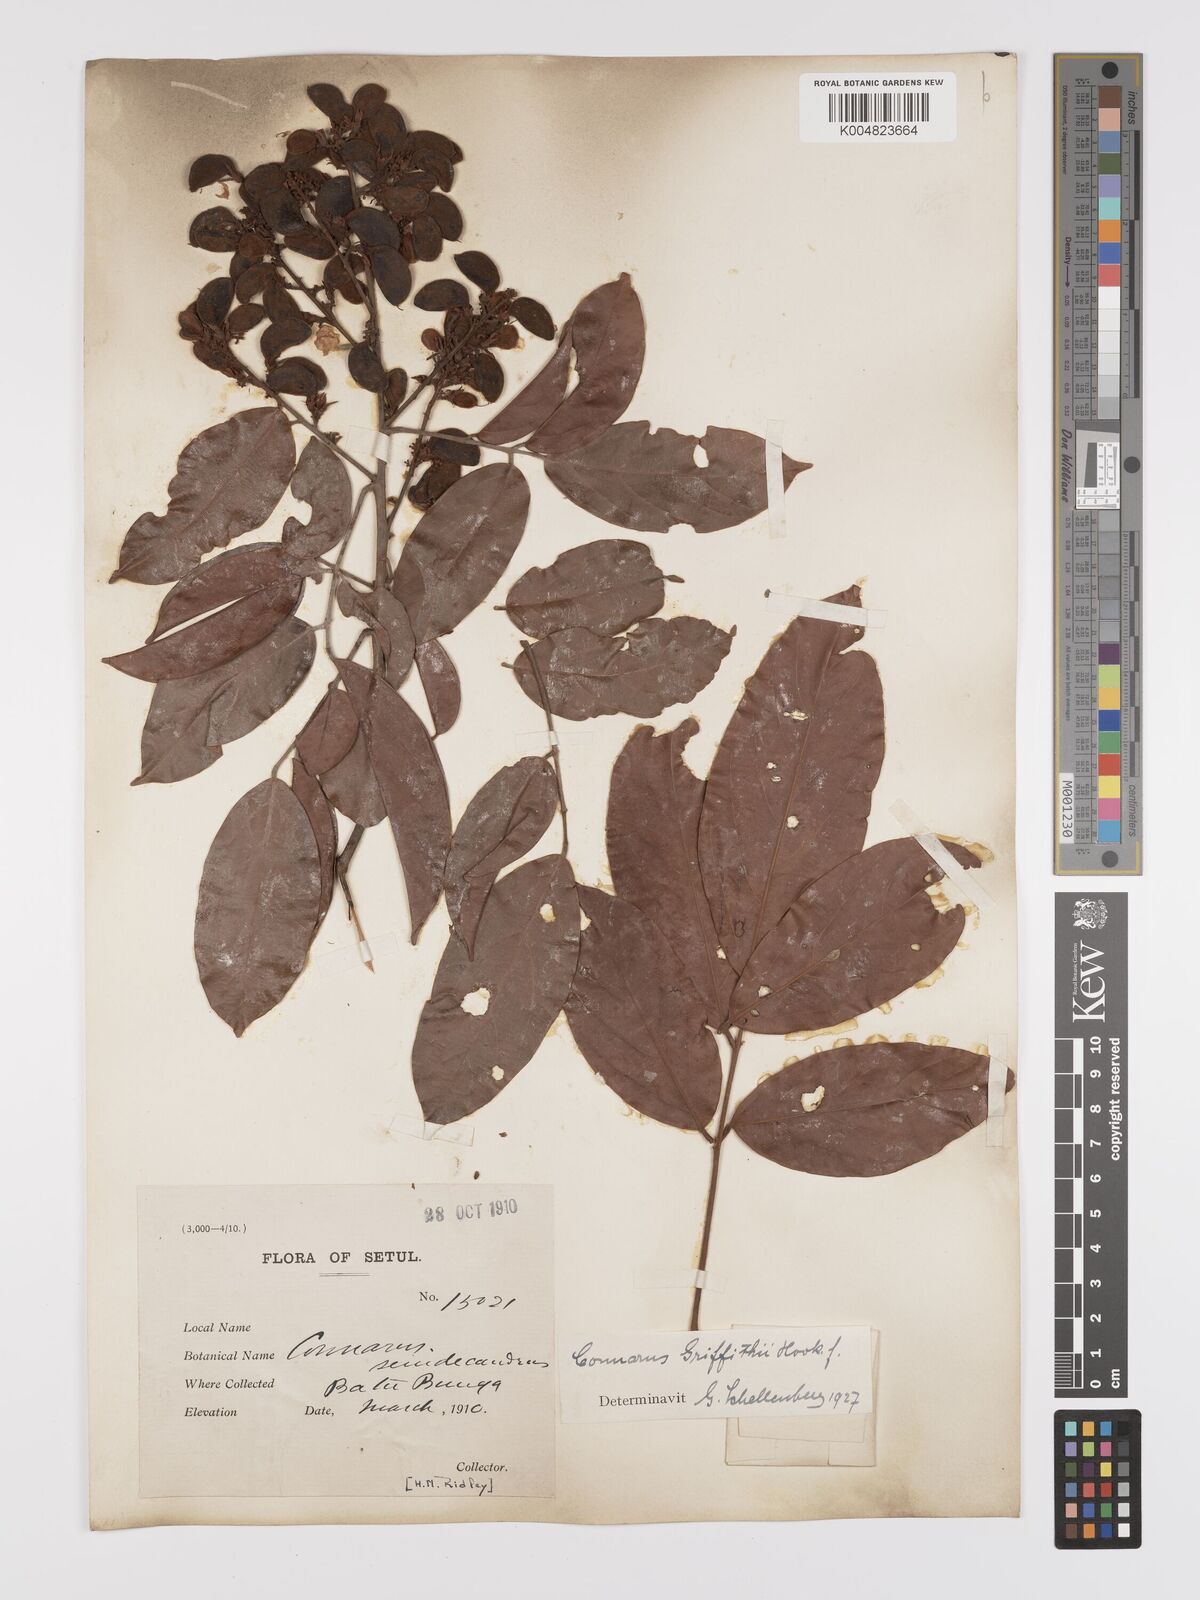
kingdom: Plantae
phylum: Tracheophyta
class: Magnoliopsida
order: Oxalidales
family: Connaraceae
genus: Connarus
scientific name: Connarus semidecandrus
